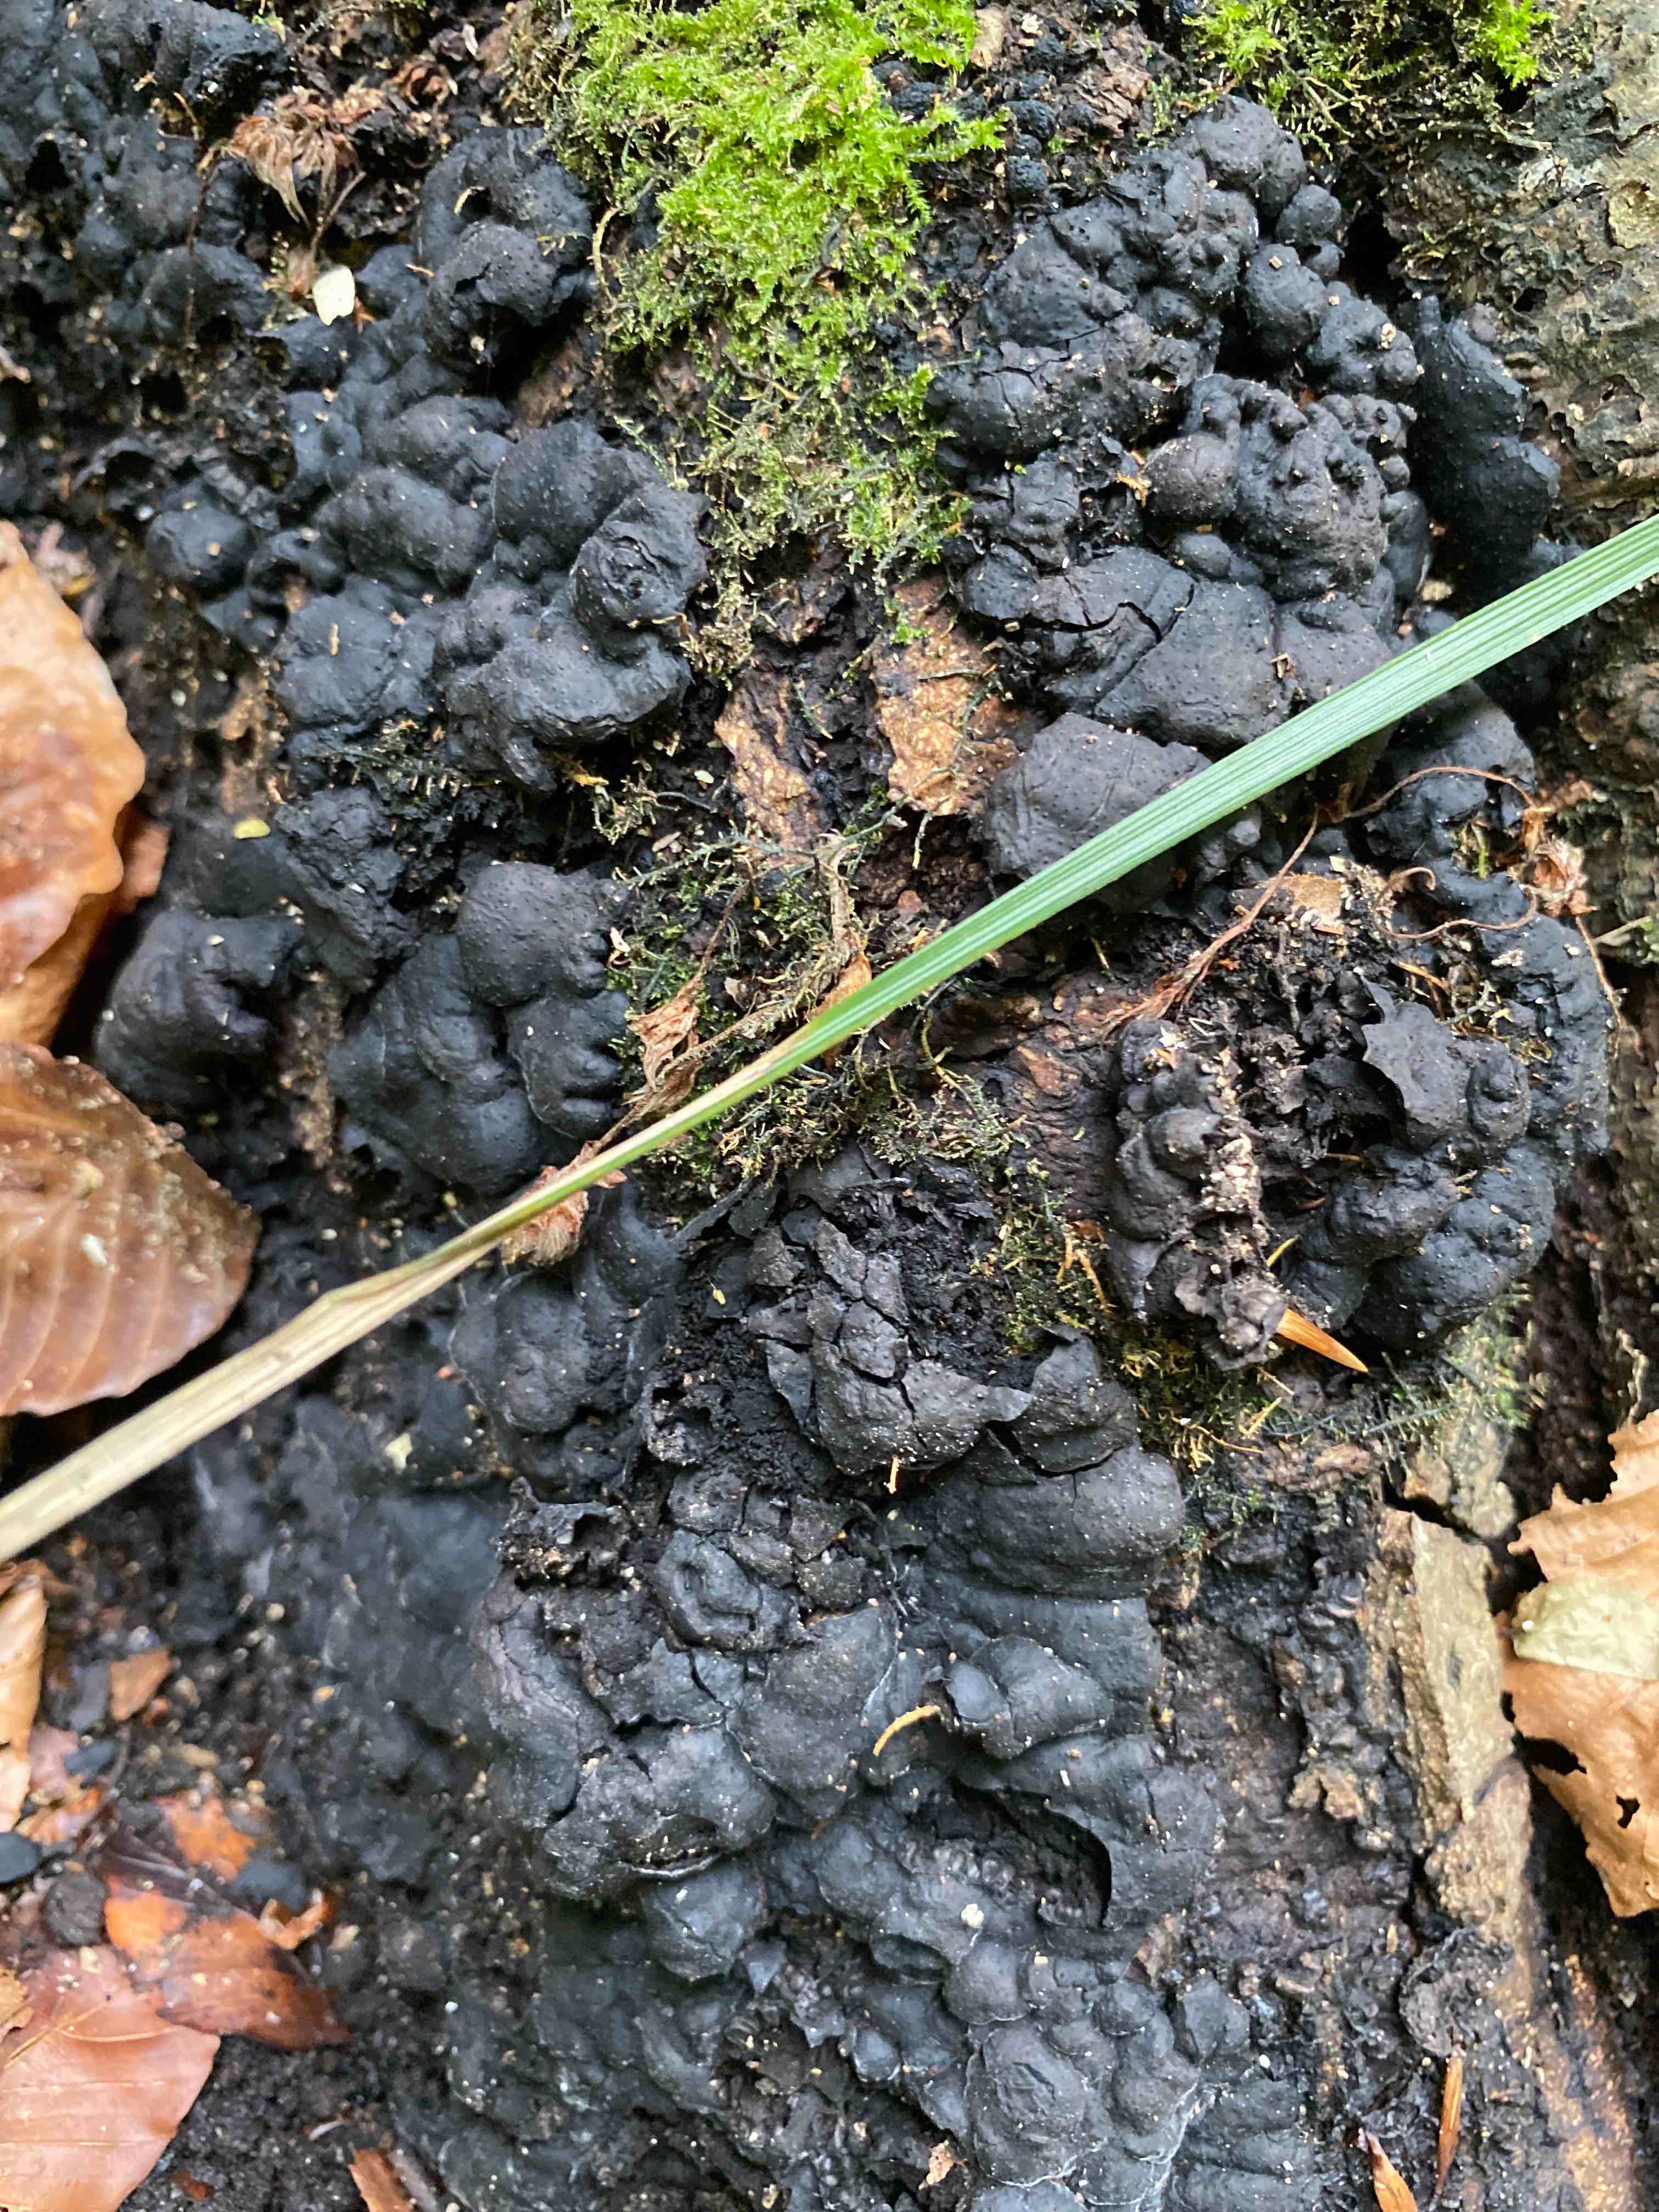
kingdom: Fungi
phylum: Ascomycota
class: Sordariomycetes
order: Xylariales
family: Xylariaceae
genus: Kretzschmaria
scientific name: Kretzschmaria deusta
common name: stor kulsvamp
